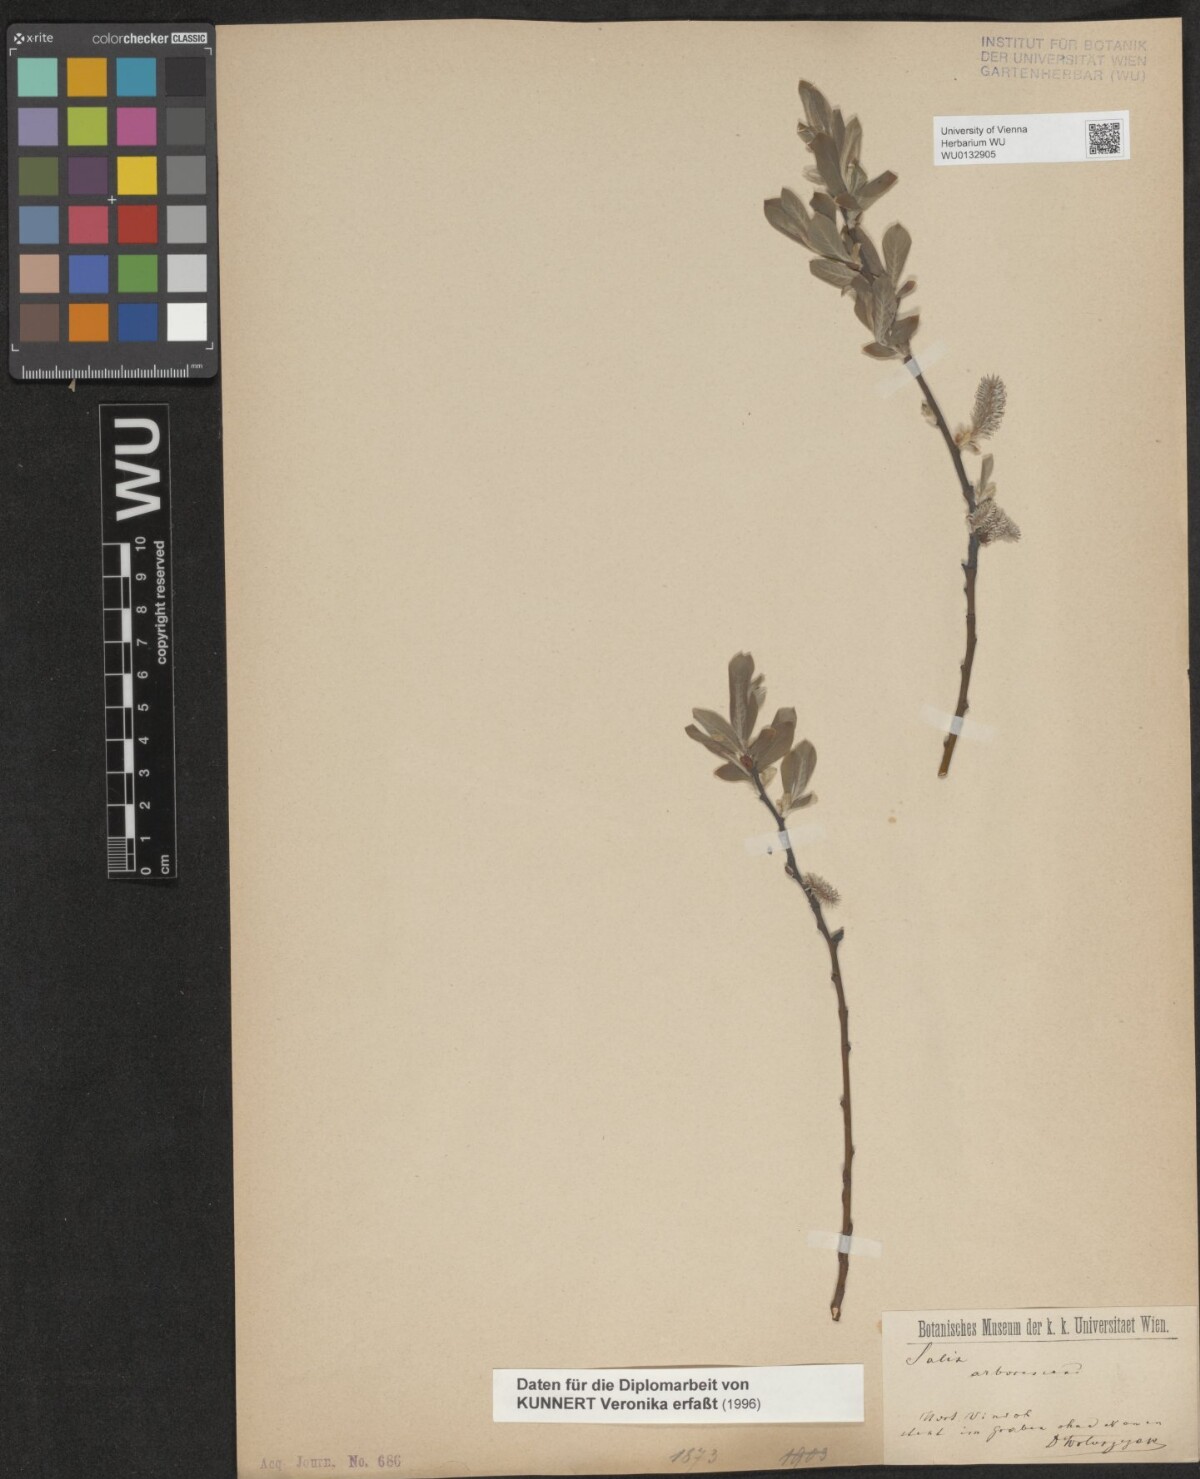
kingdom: Plantae
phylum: Tracheophyta
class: Magnoliopsida
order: Malpighiales
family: Salicaceae
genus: Salix
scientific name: Salix purpurea
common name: Purple willow
